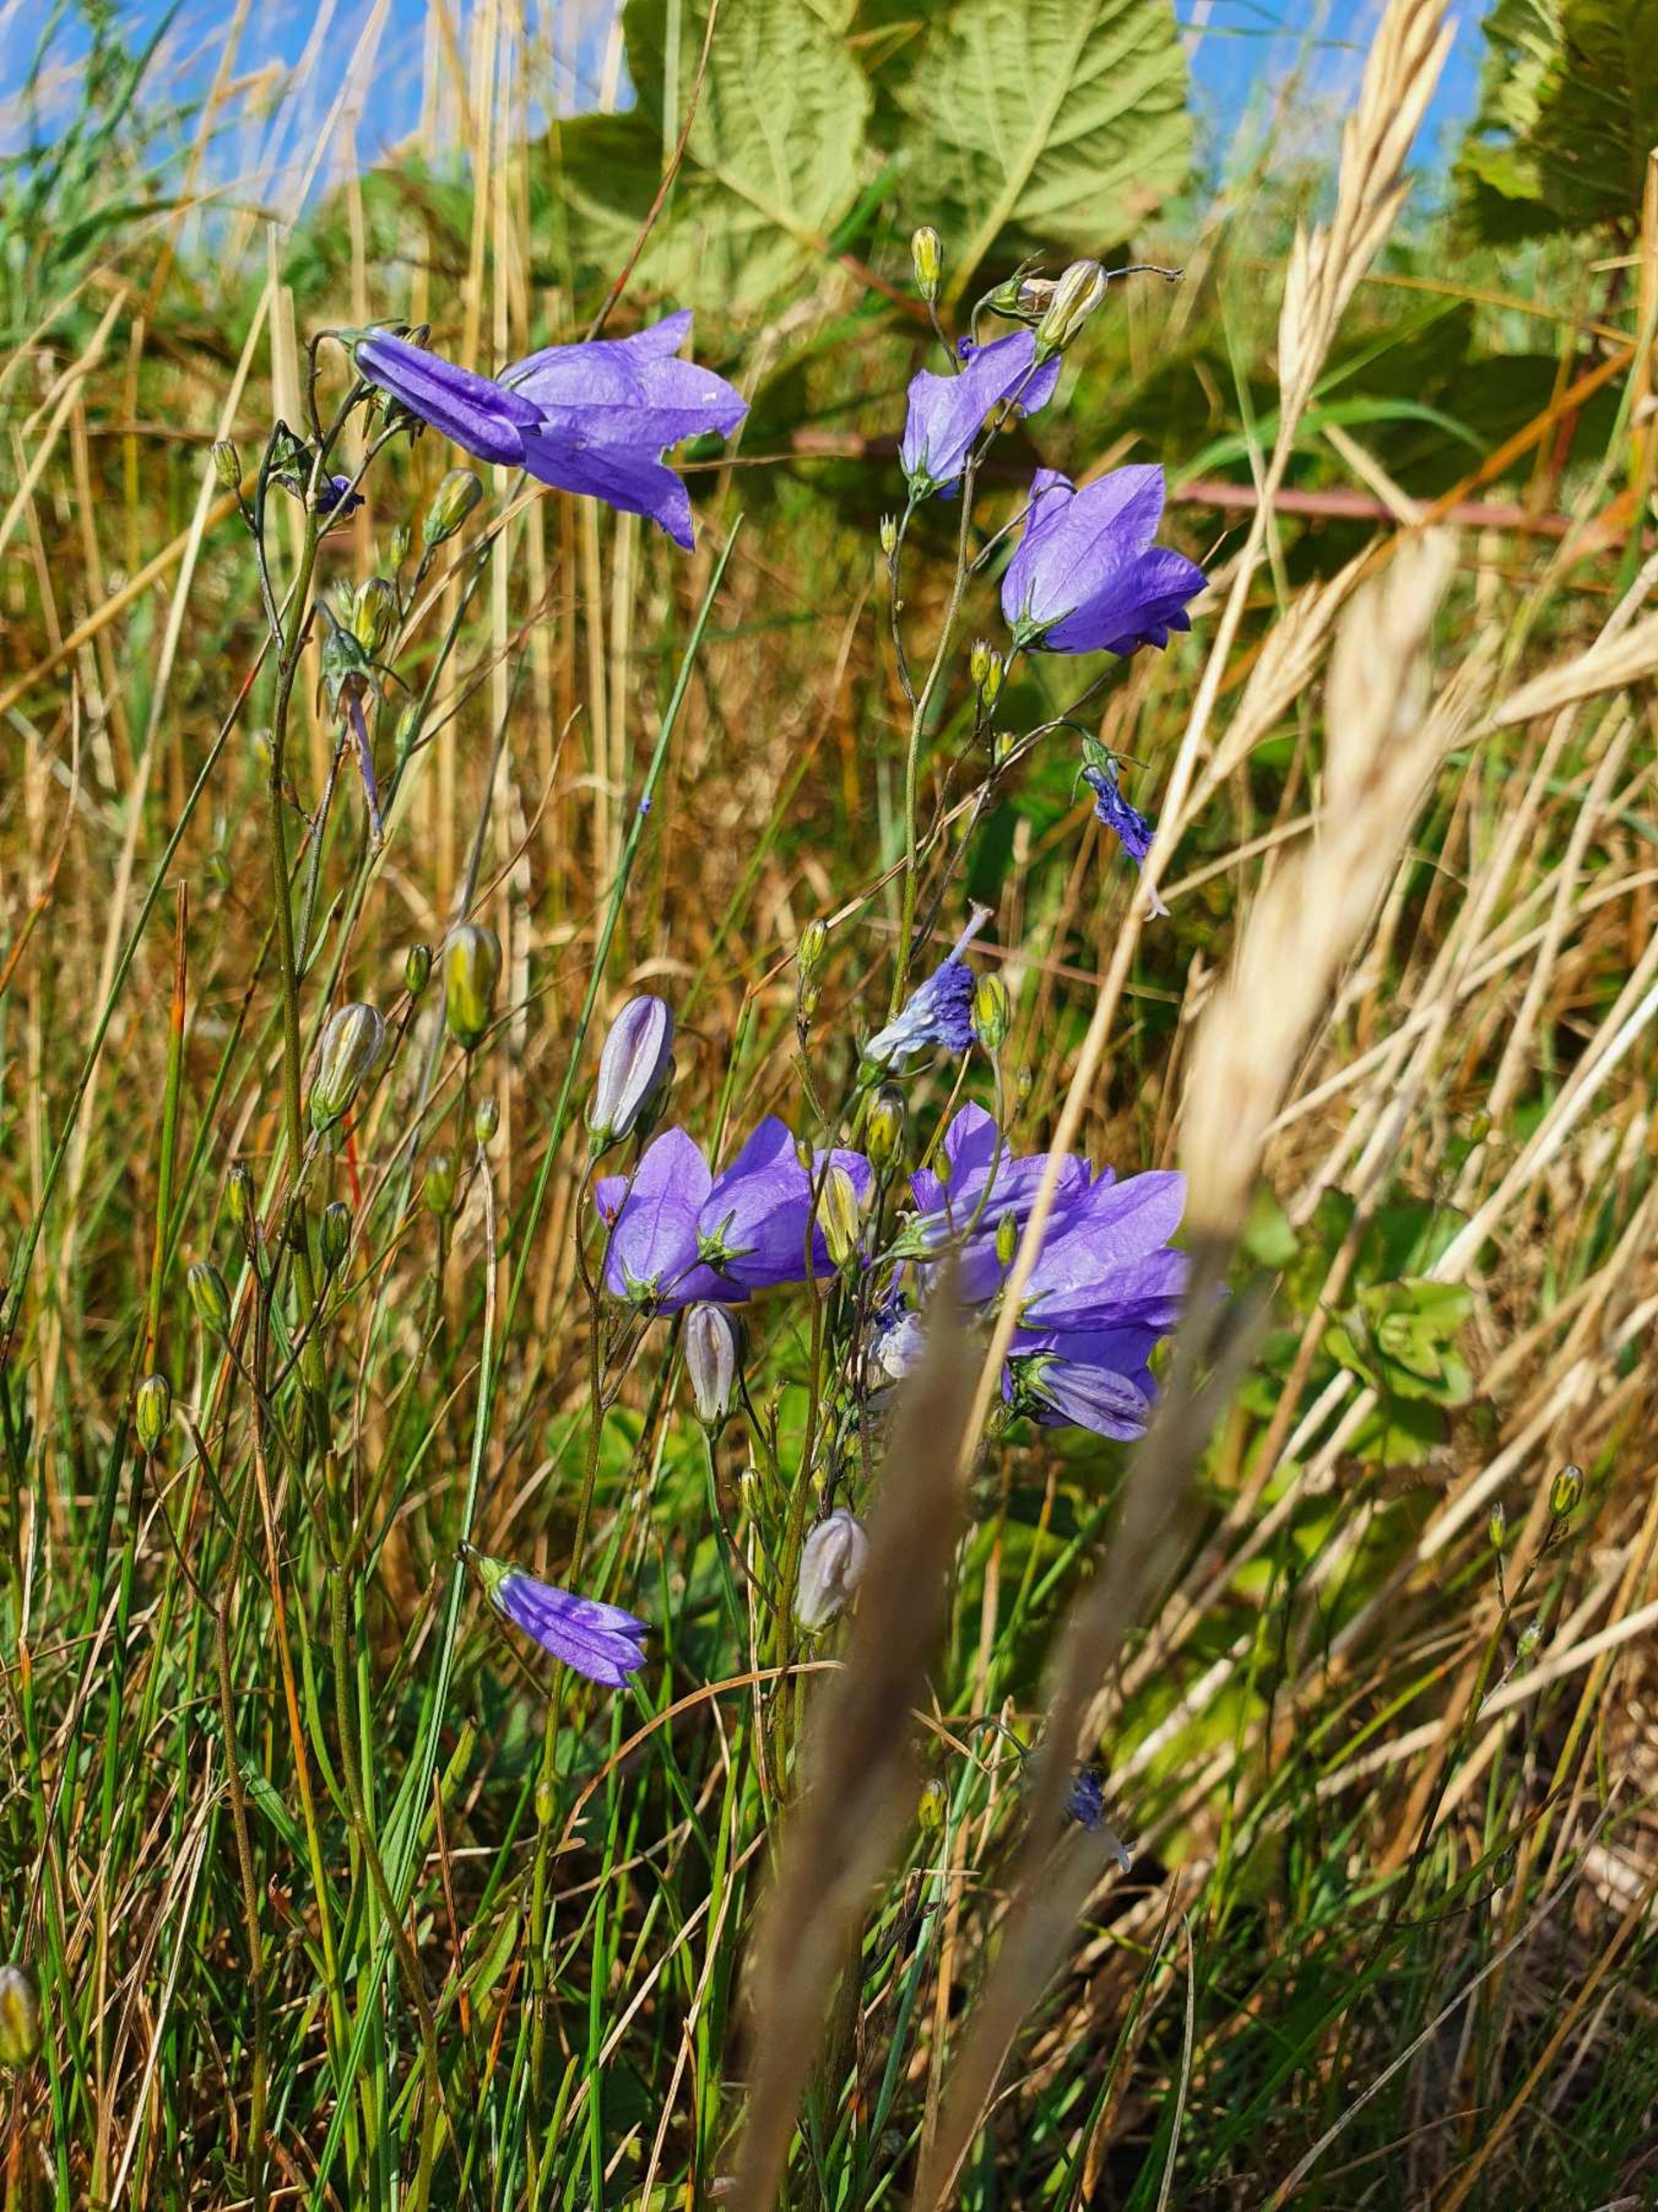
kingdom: Plantae
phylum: Tracheophyta
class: Magnoliopsida
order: Asterales
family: Campanulaceae
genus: Campanula
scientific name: Campanula rotundifolia
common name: Liden klokke
